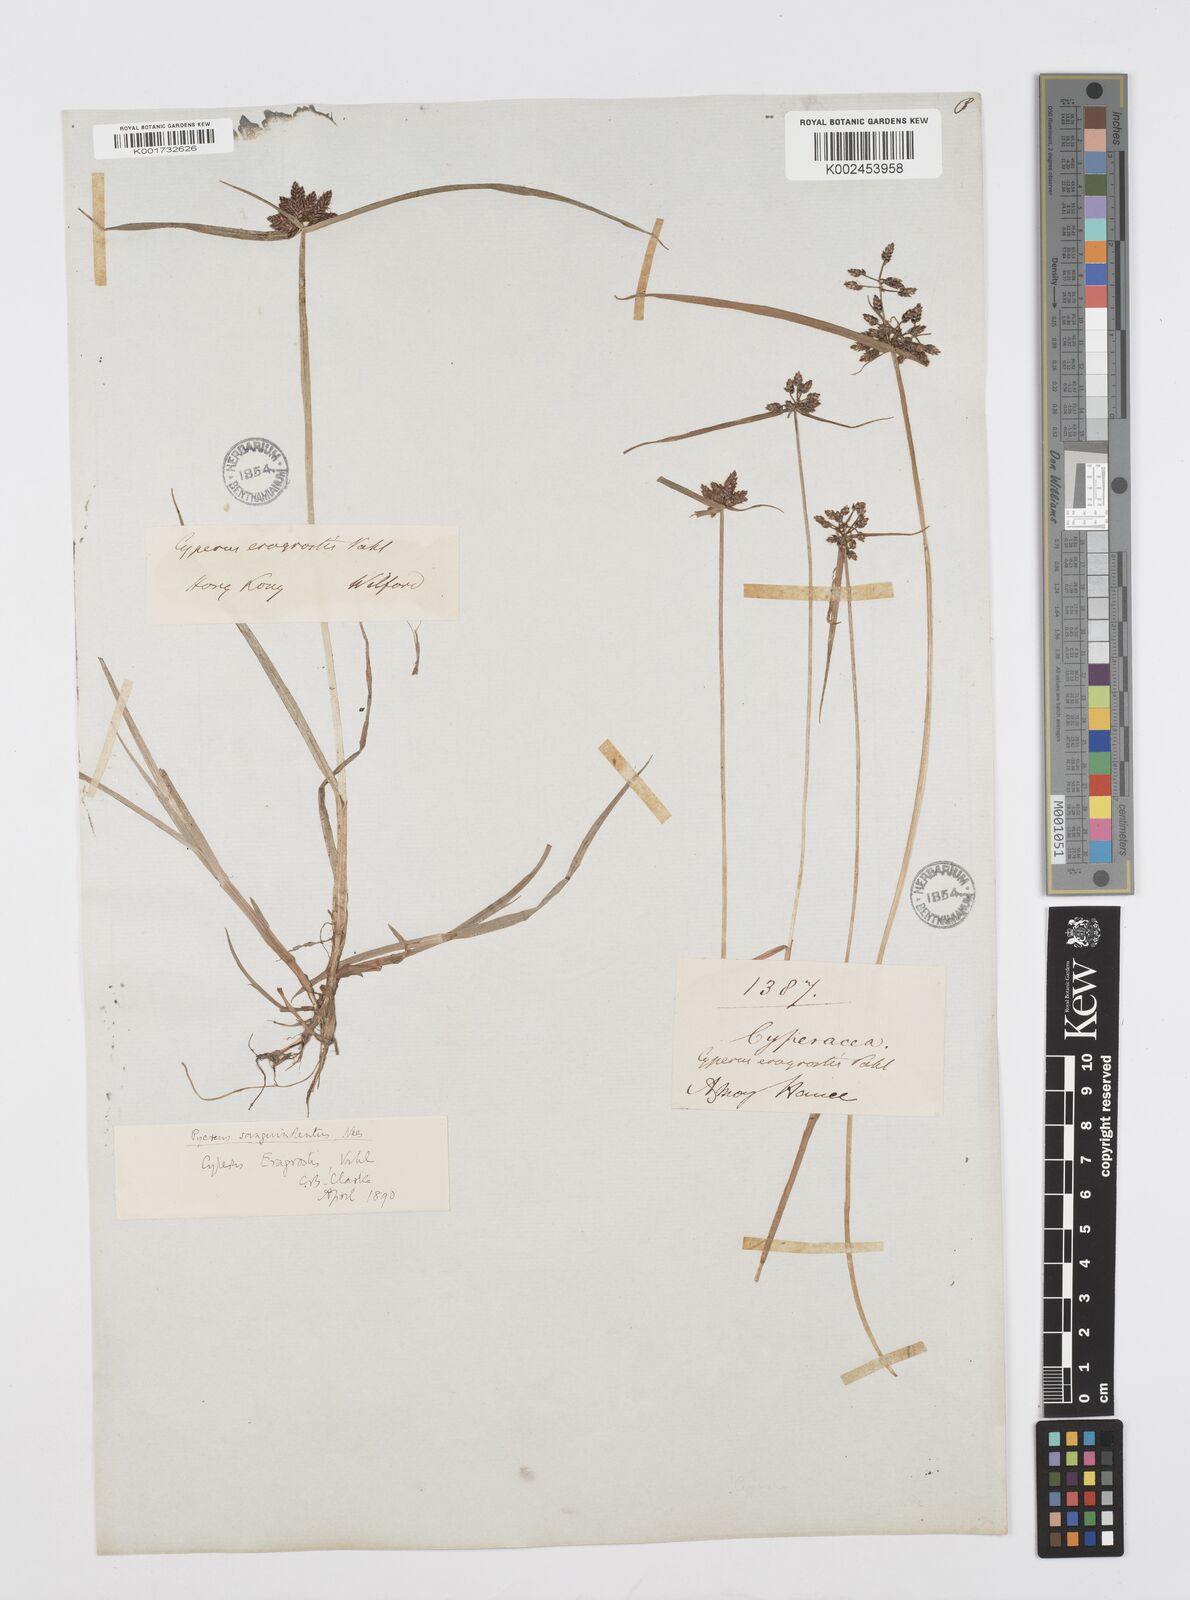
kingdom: Plantae
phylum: Tracheophyta
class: Liliopsida
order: Poales
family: Cyperaceae
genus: Cyperus
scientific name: Cyperus sanguinolentus
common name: Purpleglume flatsedge
